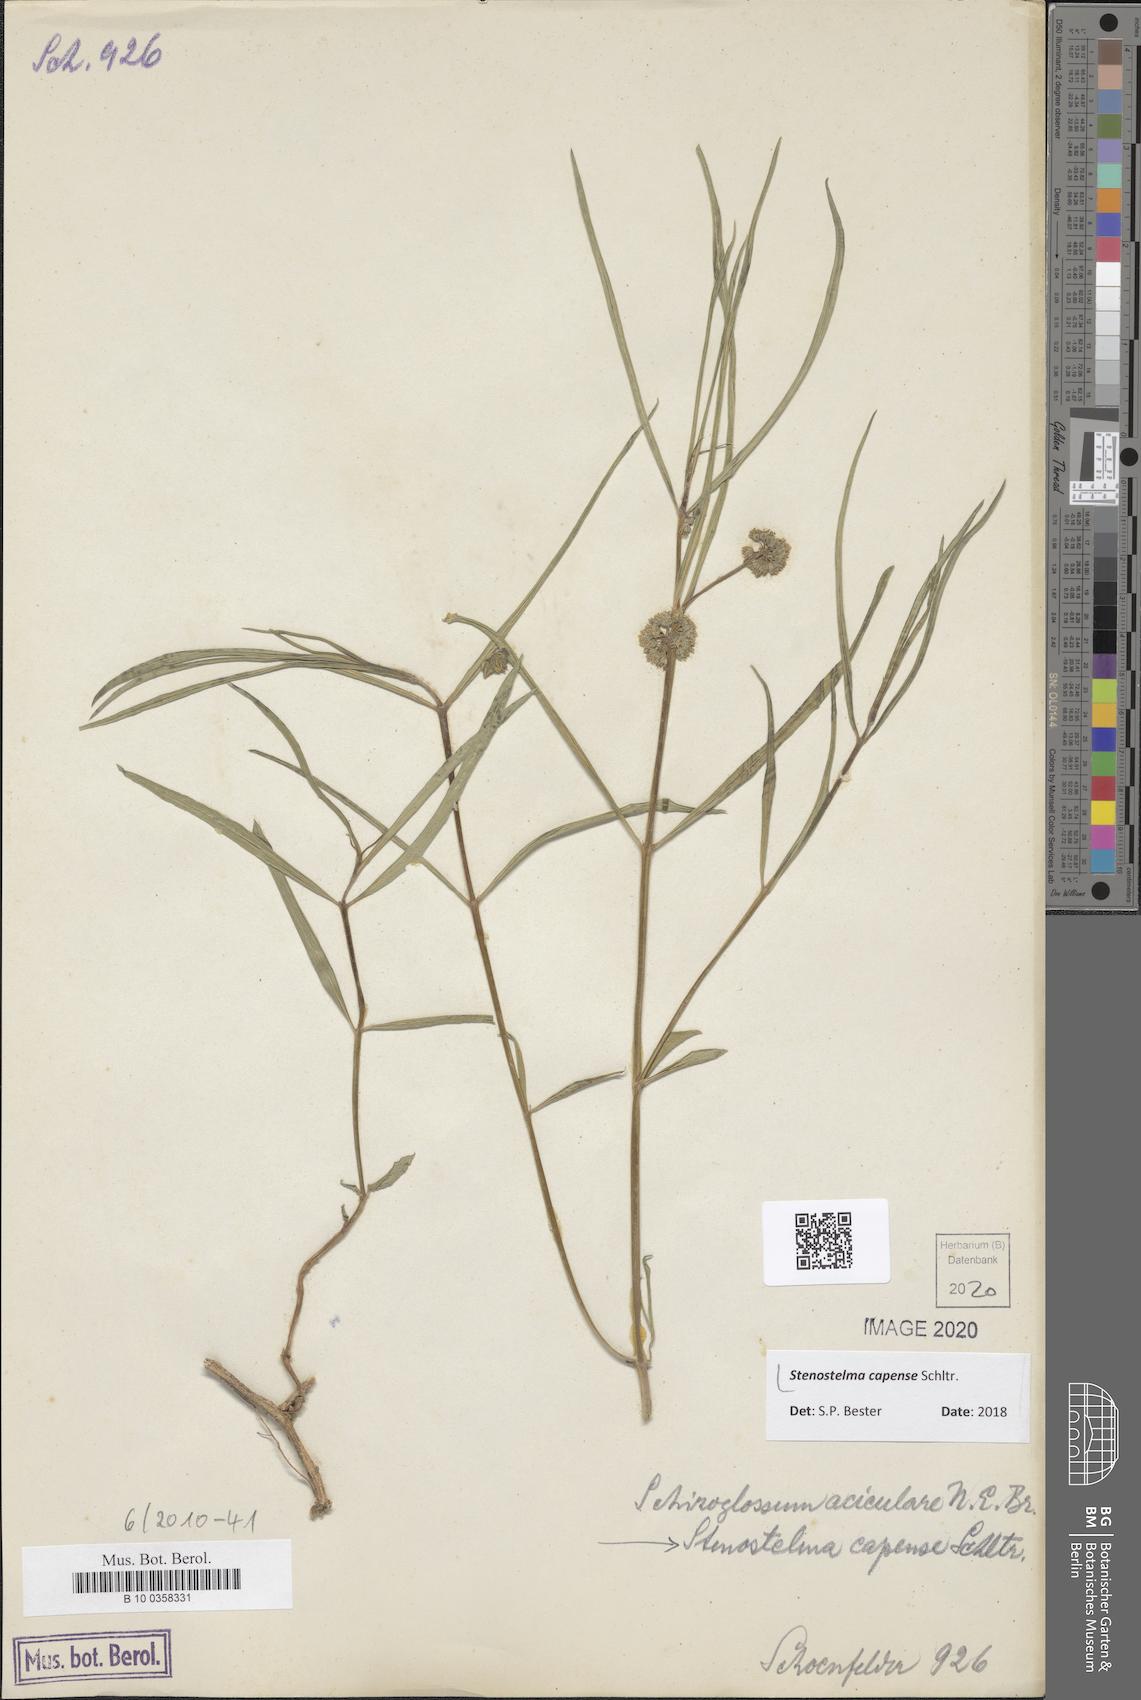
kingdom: Plantae
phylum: Tracheophyta
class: Magnoliopsida
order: Gentianales
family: Apocynaceae
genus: Stenostelma
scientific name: Stenostelma capense
